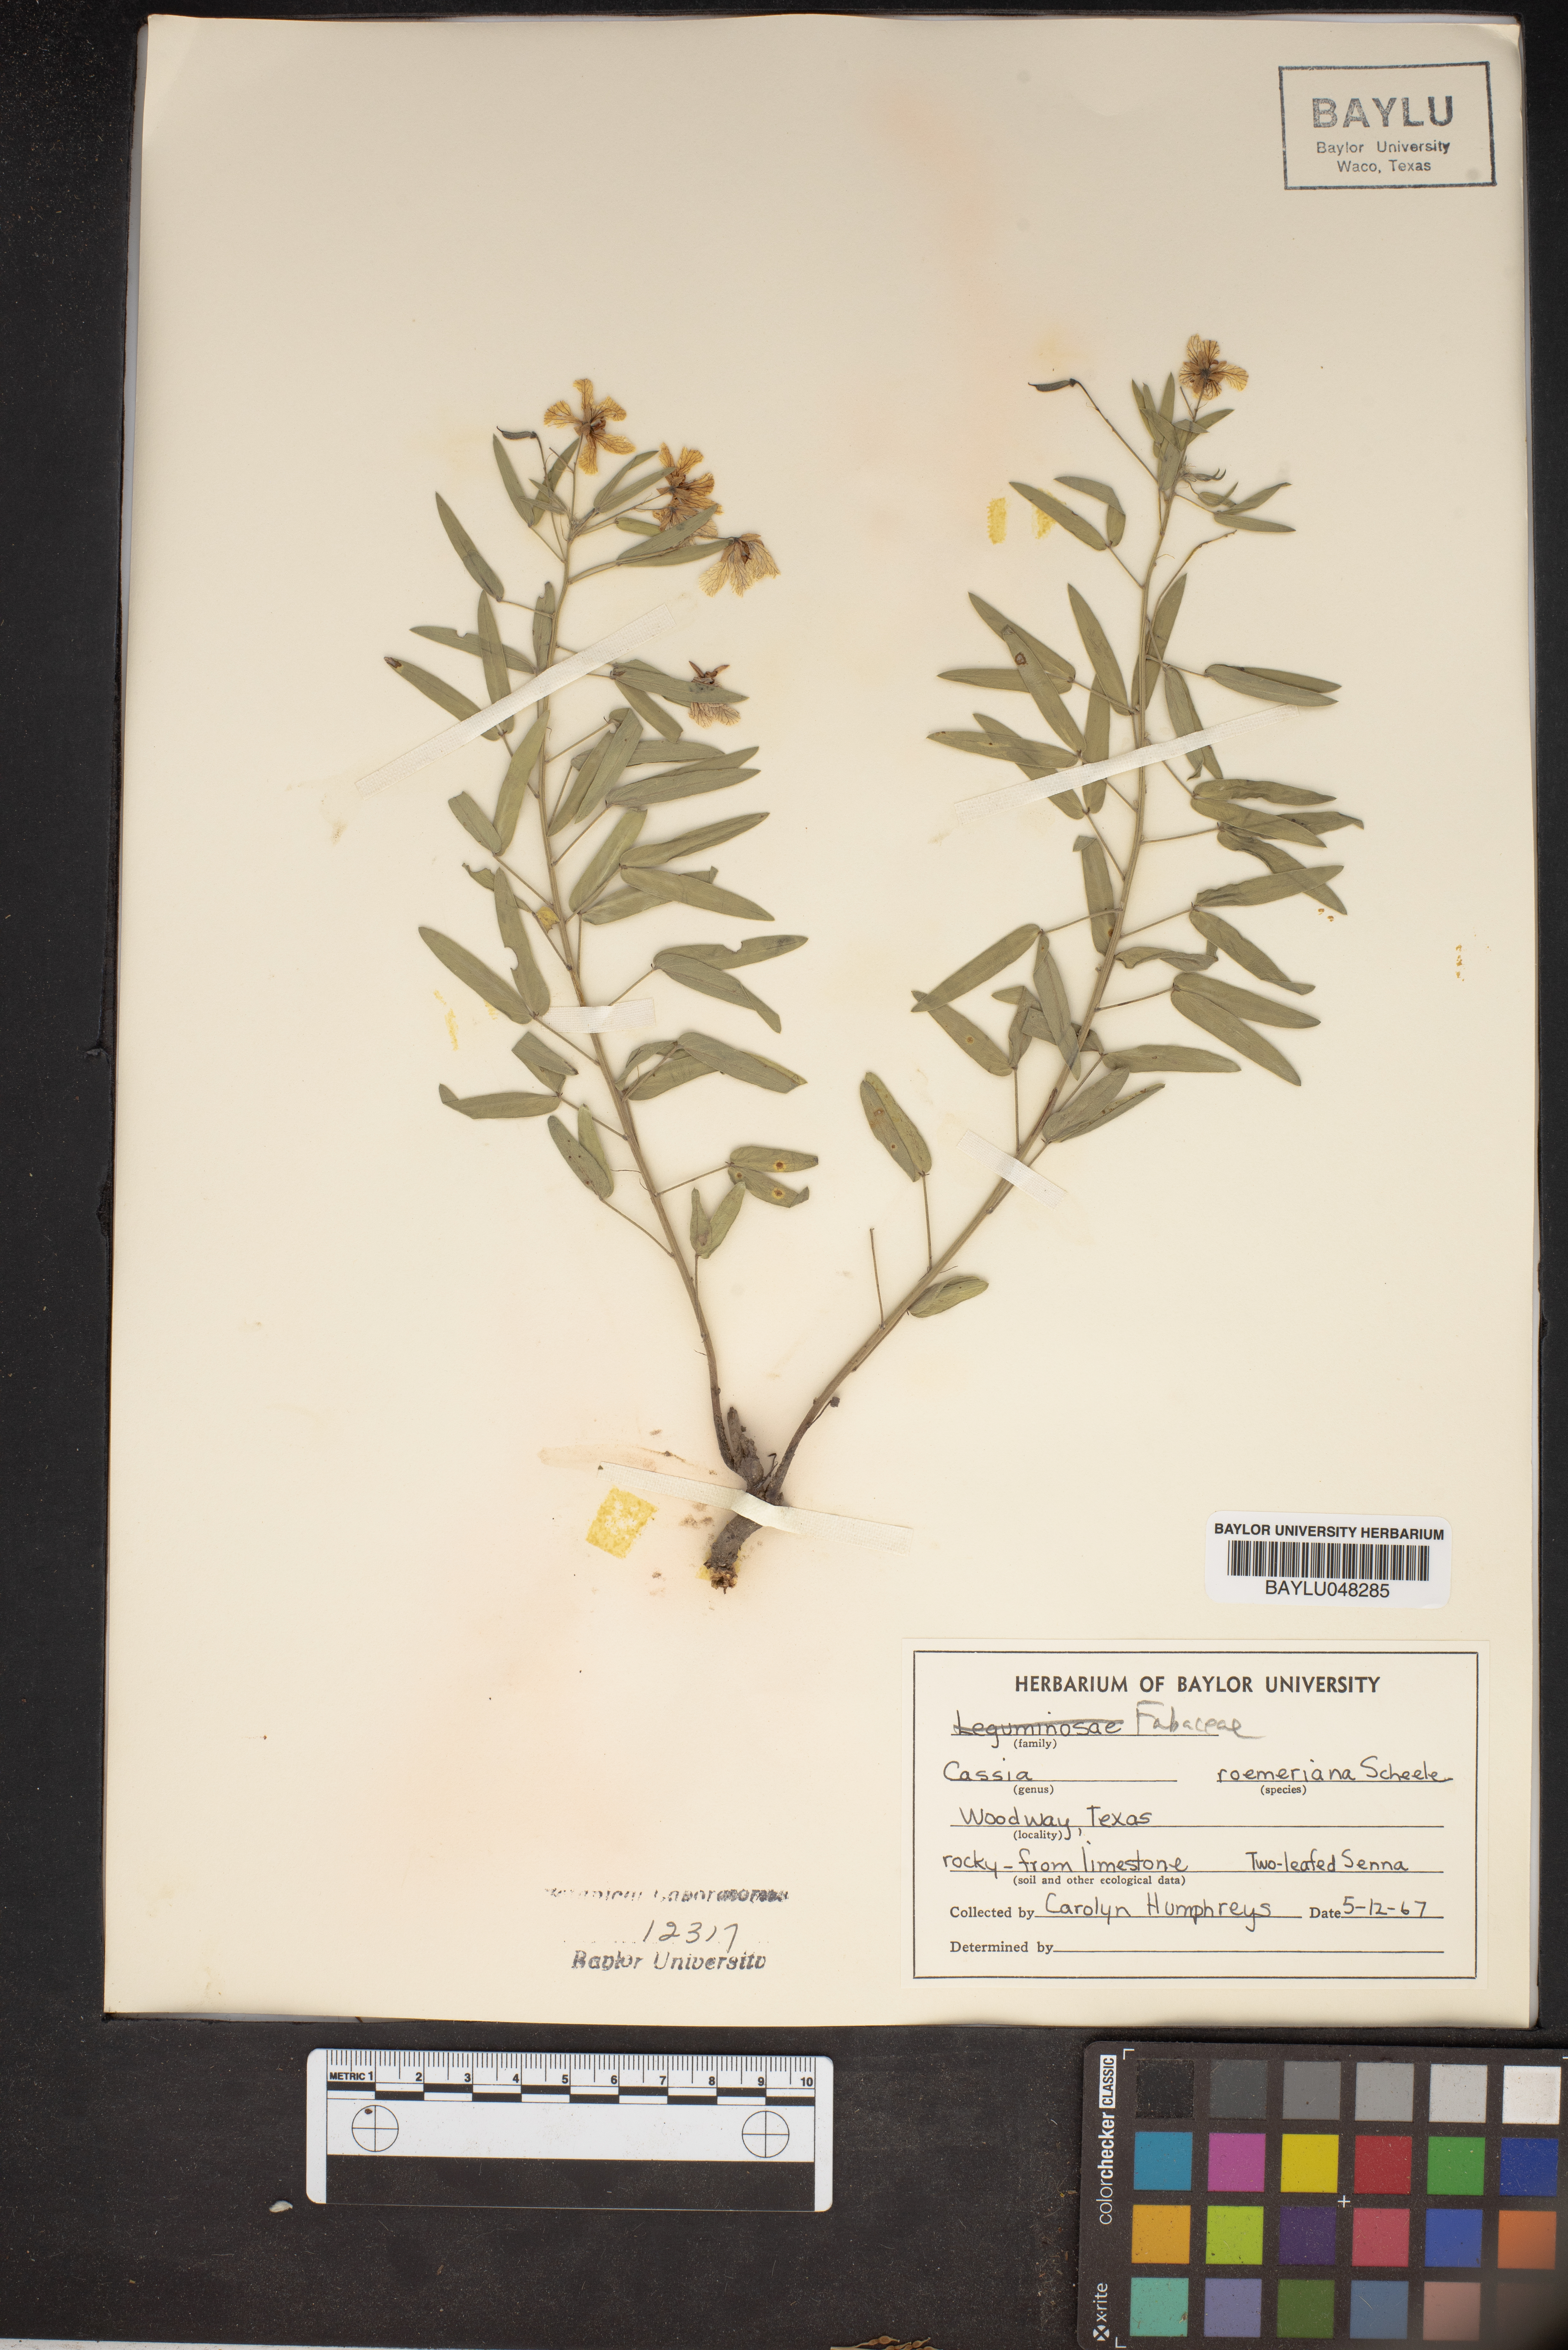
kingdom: Plantae
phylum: Tracheophyta
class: Magnoliopsida
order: Fabales
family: Fabaceae
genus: Senna
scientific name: Senna roemeriana
